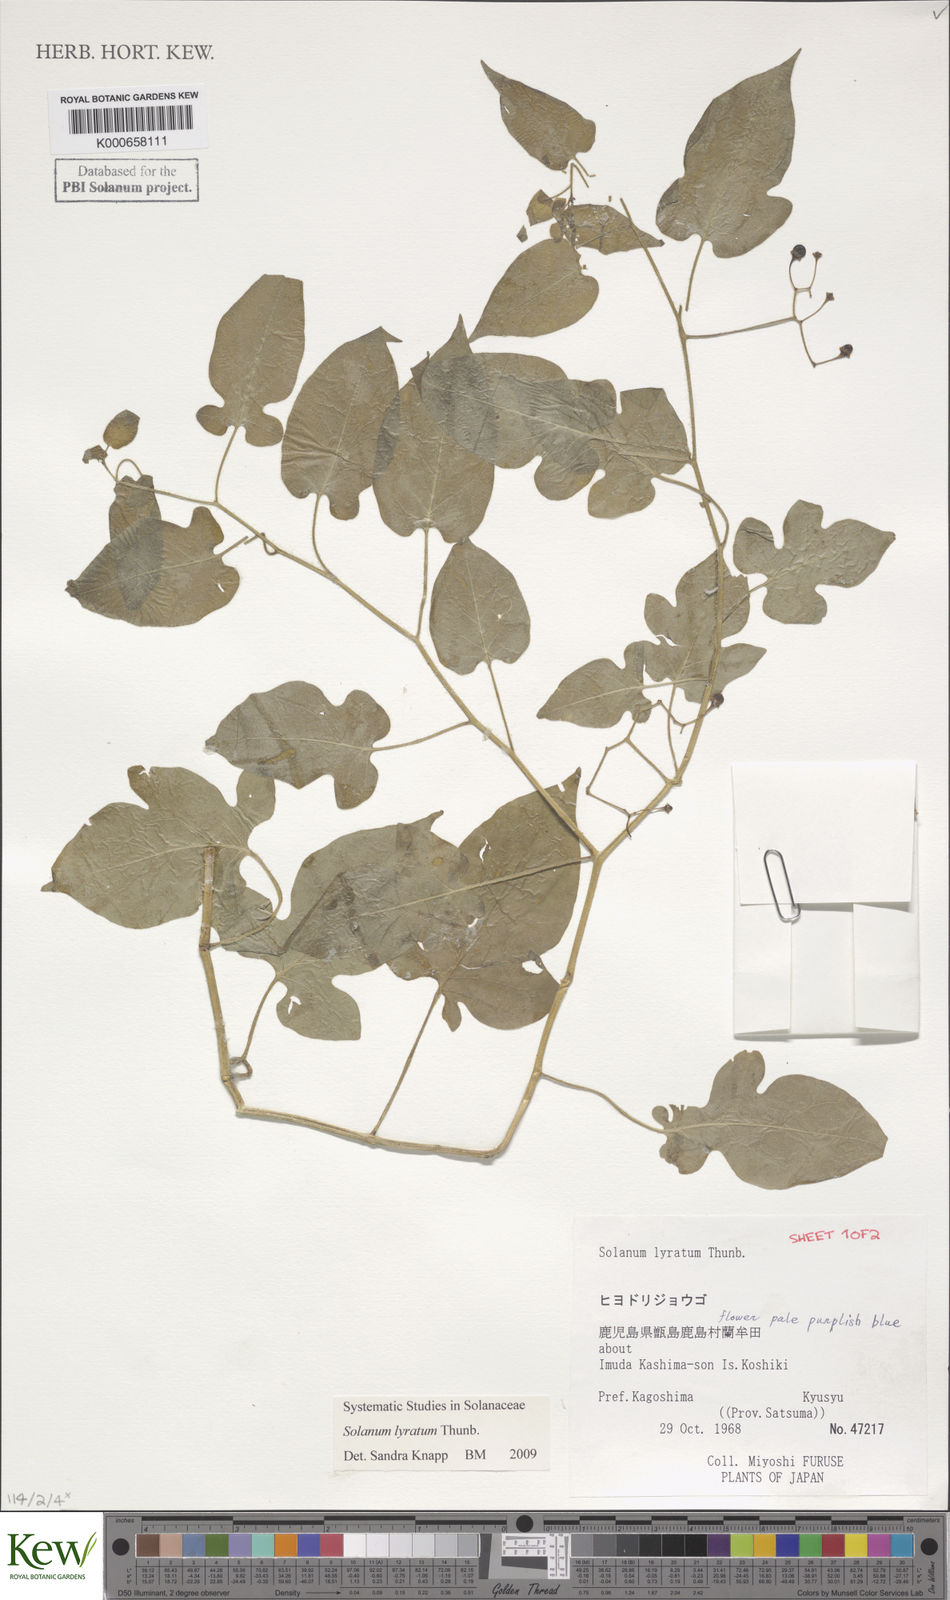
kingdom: Plantae
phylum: Tracheophyta
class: Magnoliopsida
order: Solanales
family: Solanaceae
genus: Solanum
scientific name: Solanum lyratum
